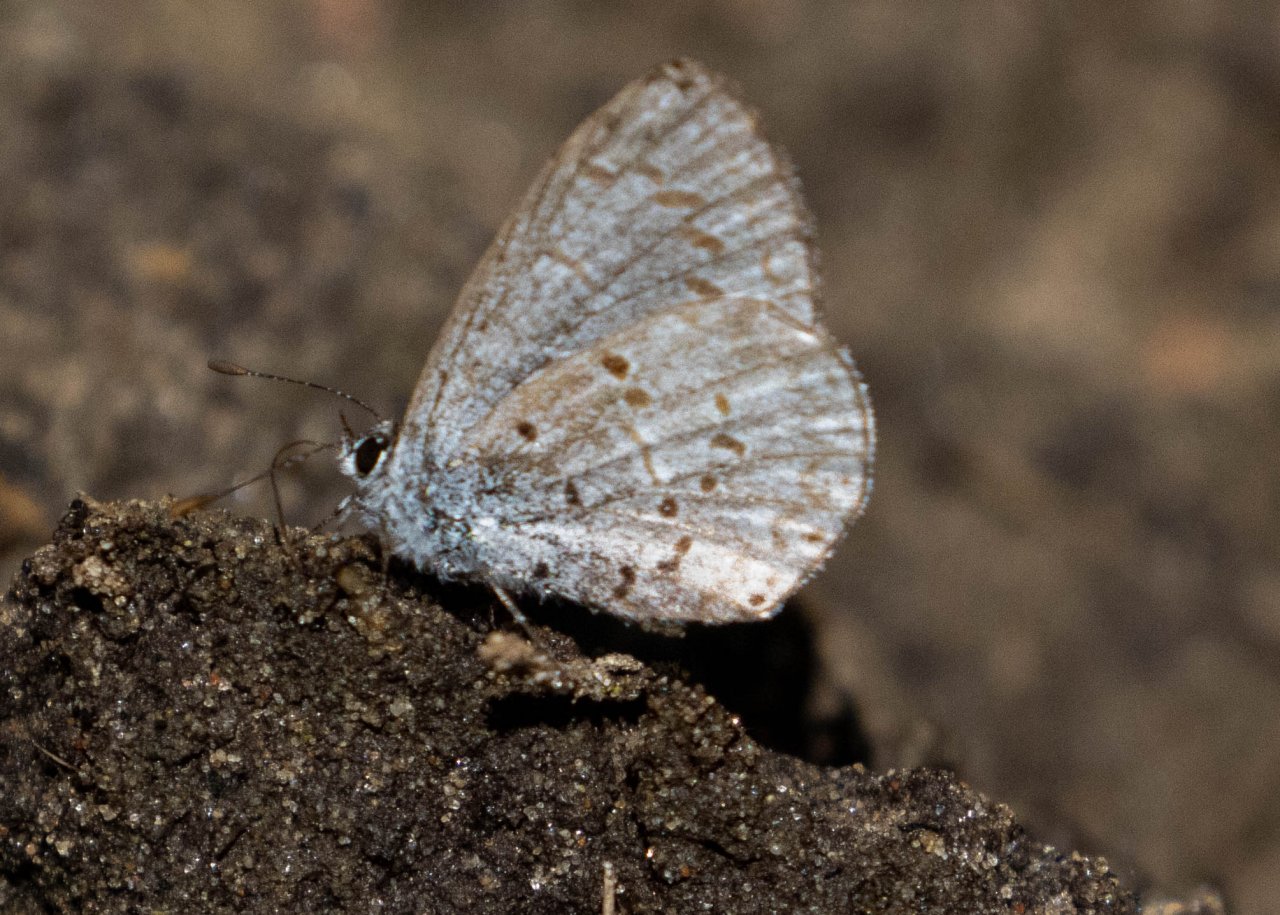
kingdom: Animalia
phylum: Arthropoda
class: Insecta
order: Lepidoptera
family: Lycaenidae
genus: Celastrina
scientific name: Celastrina
